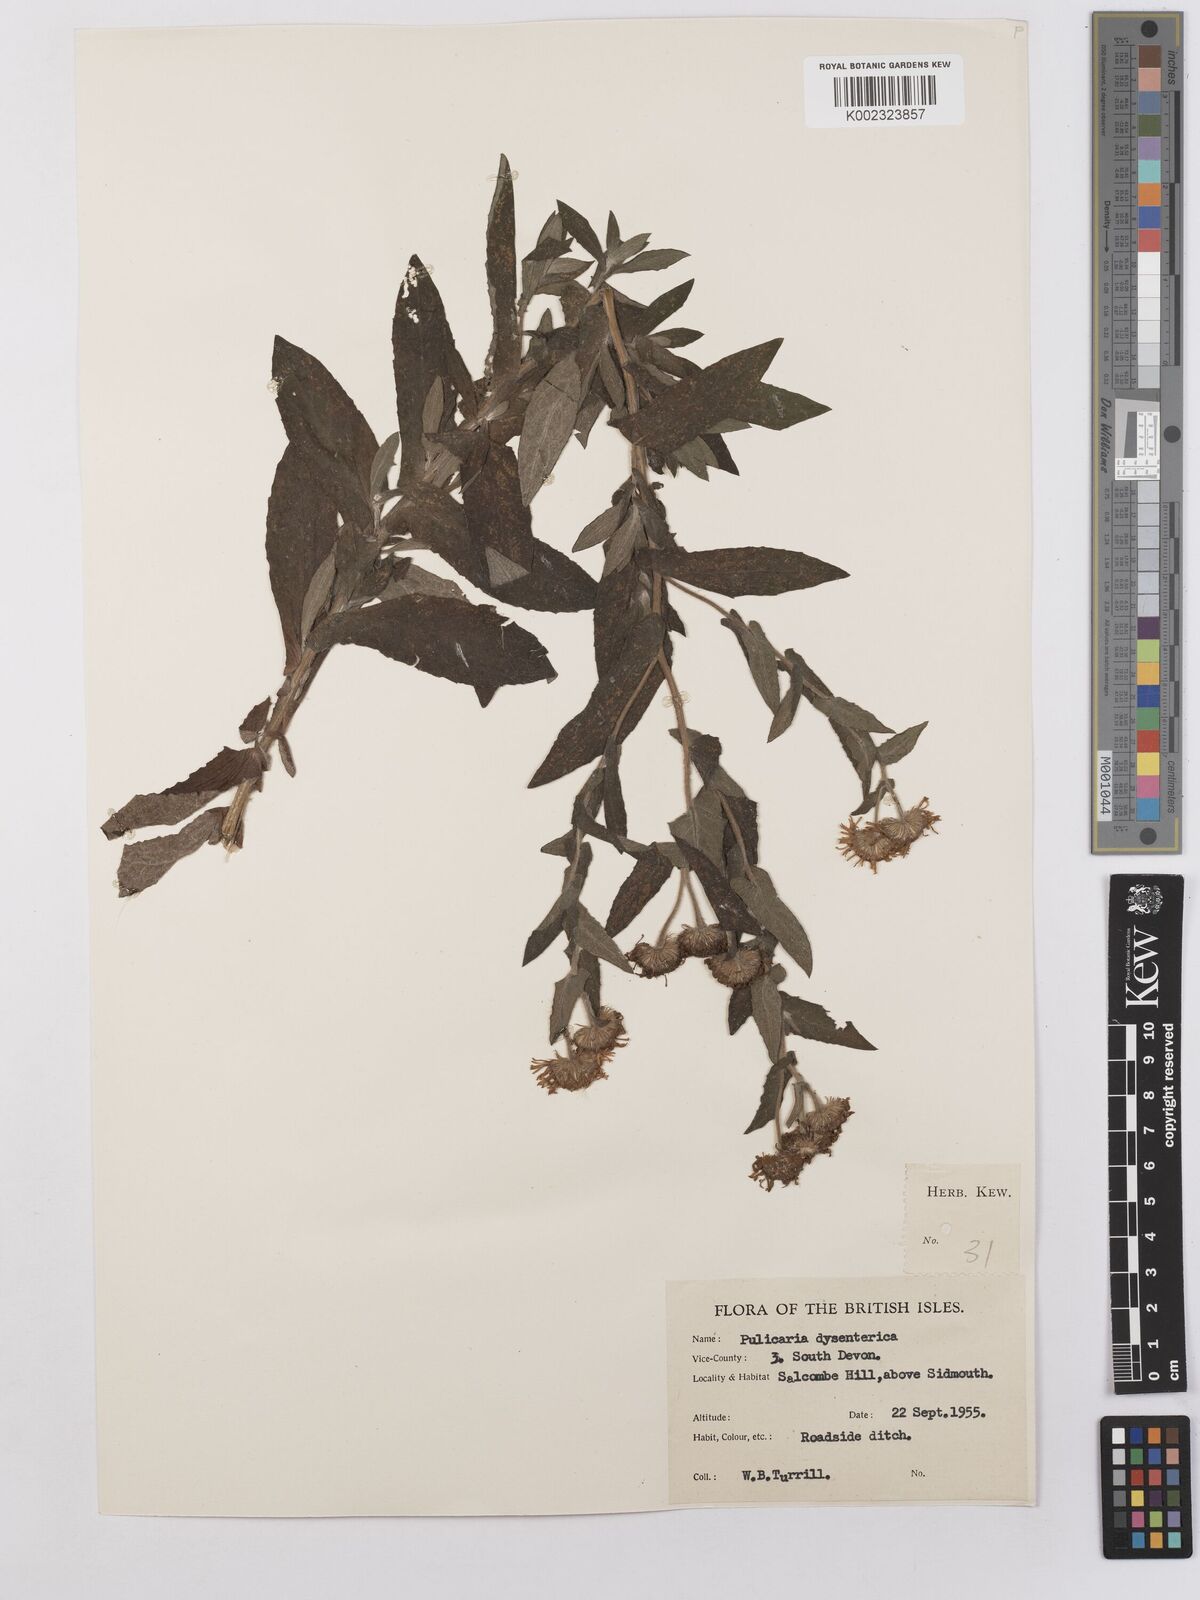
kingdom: Plantae
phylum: Tracheophyta
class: Magnoliopsida
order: Asterales
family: Asteraceae
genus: Pulicaria
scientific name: Pulicaria dysenterica
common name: Common fleabane
